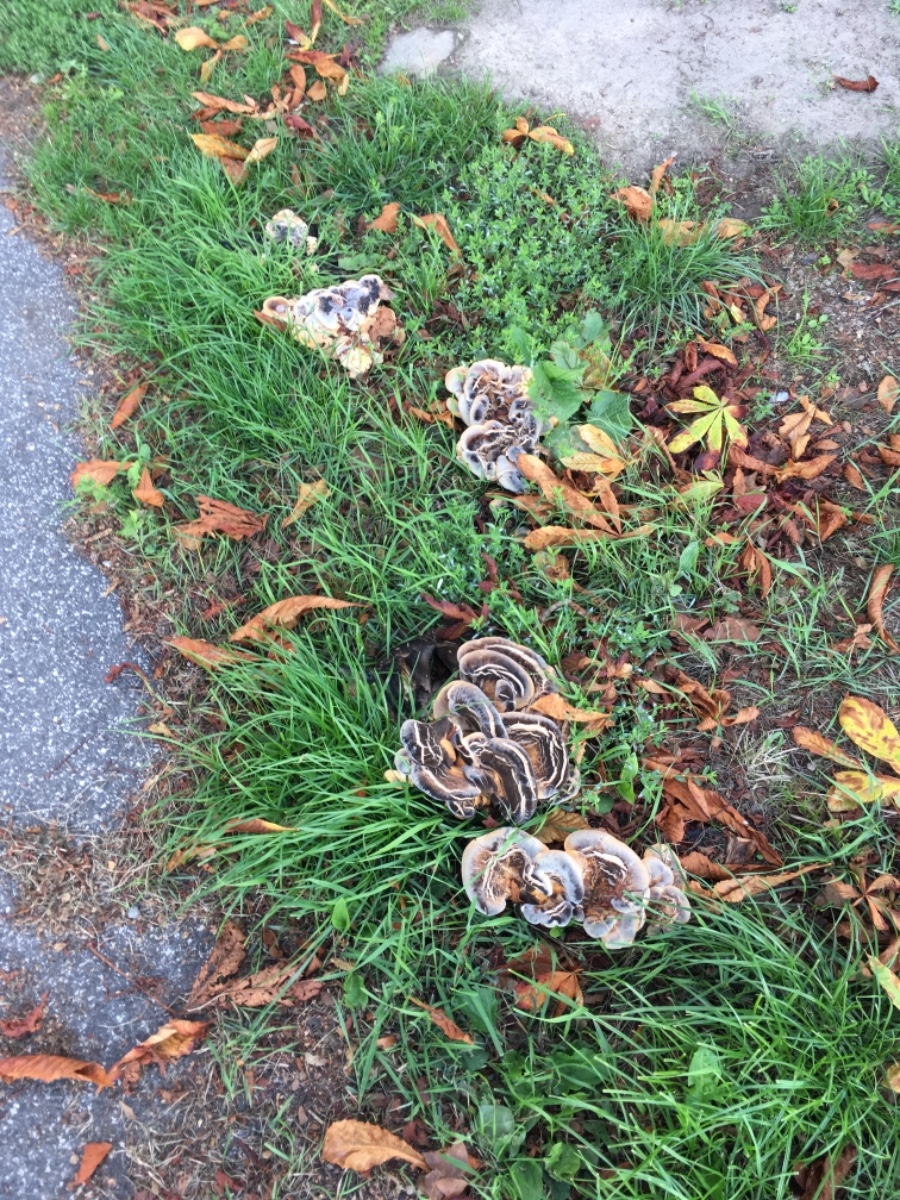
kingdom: Fungi
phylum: Basidiomycota
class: Agaricomycetes
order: Polyporales
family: Meripilaceae
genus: Meripilus
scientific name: Meripilus giganteus
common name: kæmpeporesvamp
